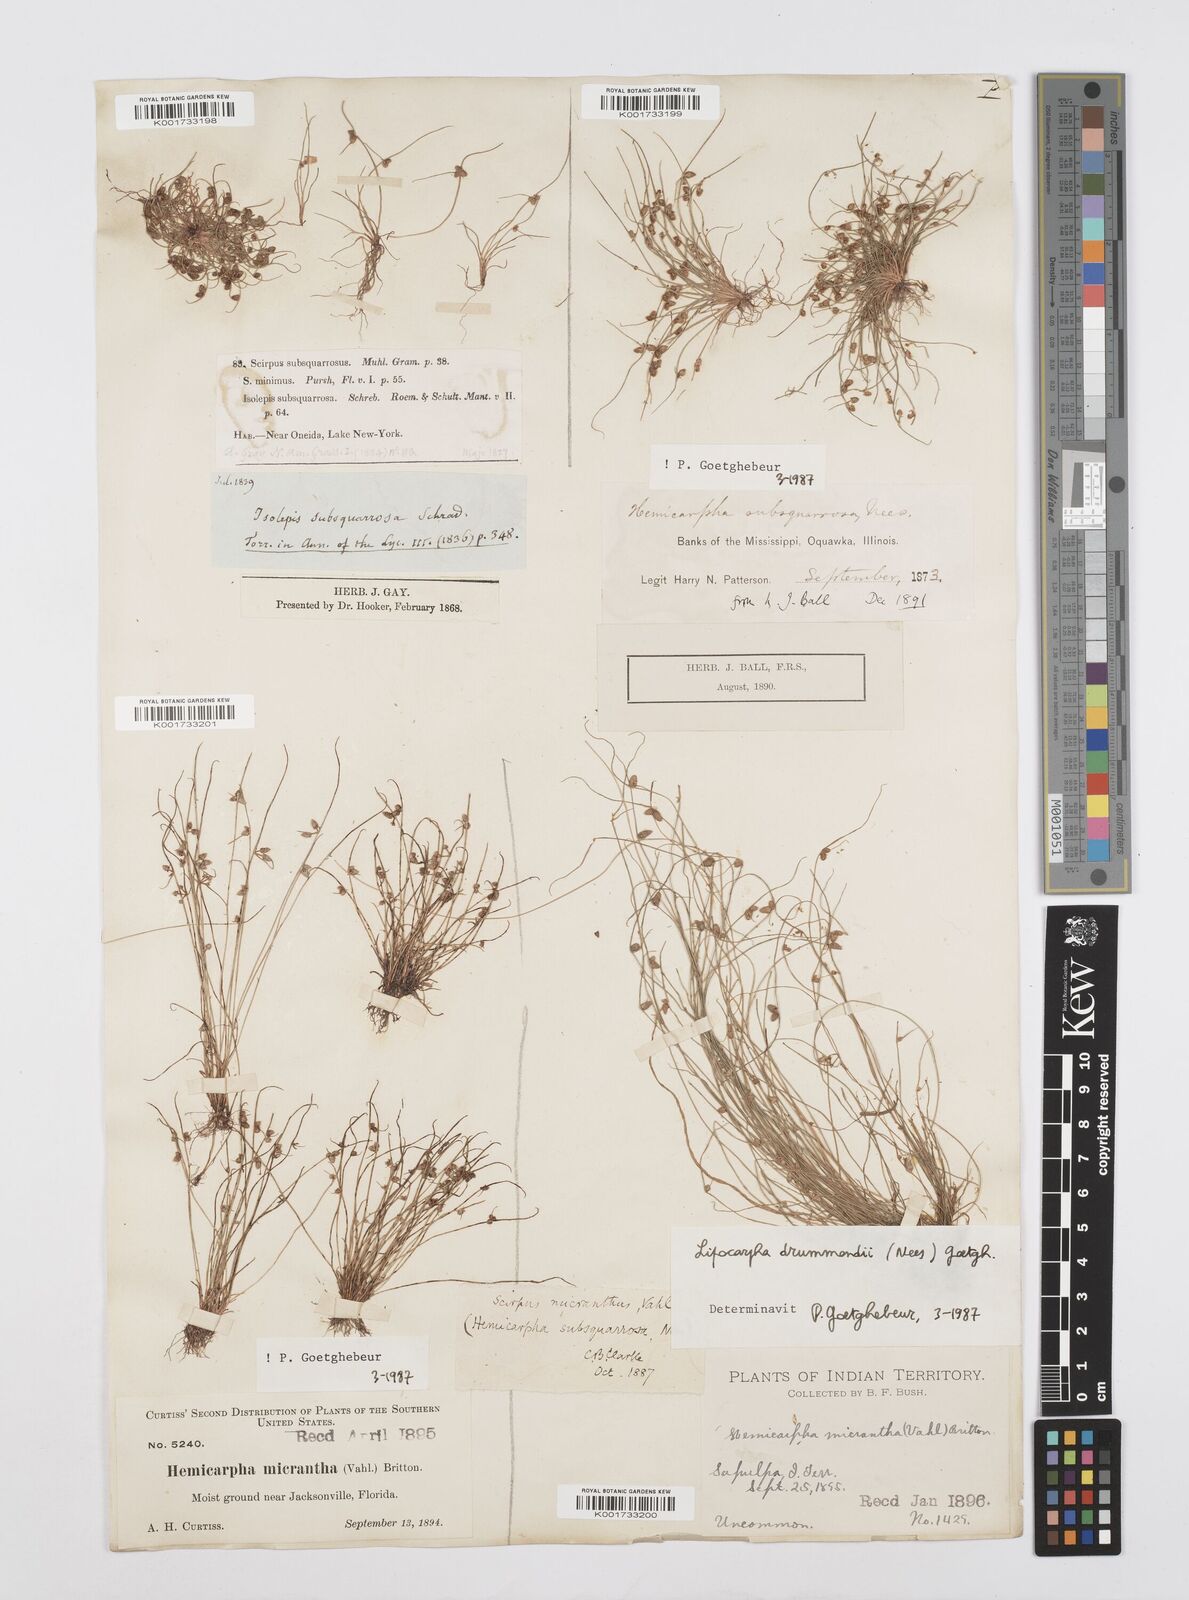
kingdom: Plantae
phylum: Tracheophyta
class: Liliopsida
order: Poales
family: Cyperaceae
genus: Cyperus
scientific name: Cyperus dentatus
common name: Dentate umbrella sedge
